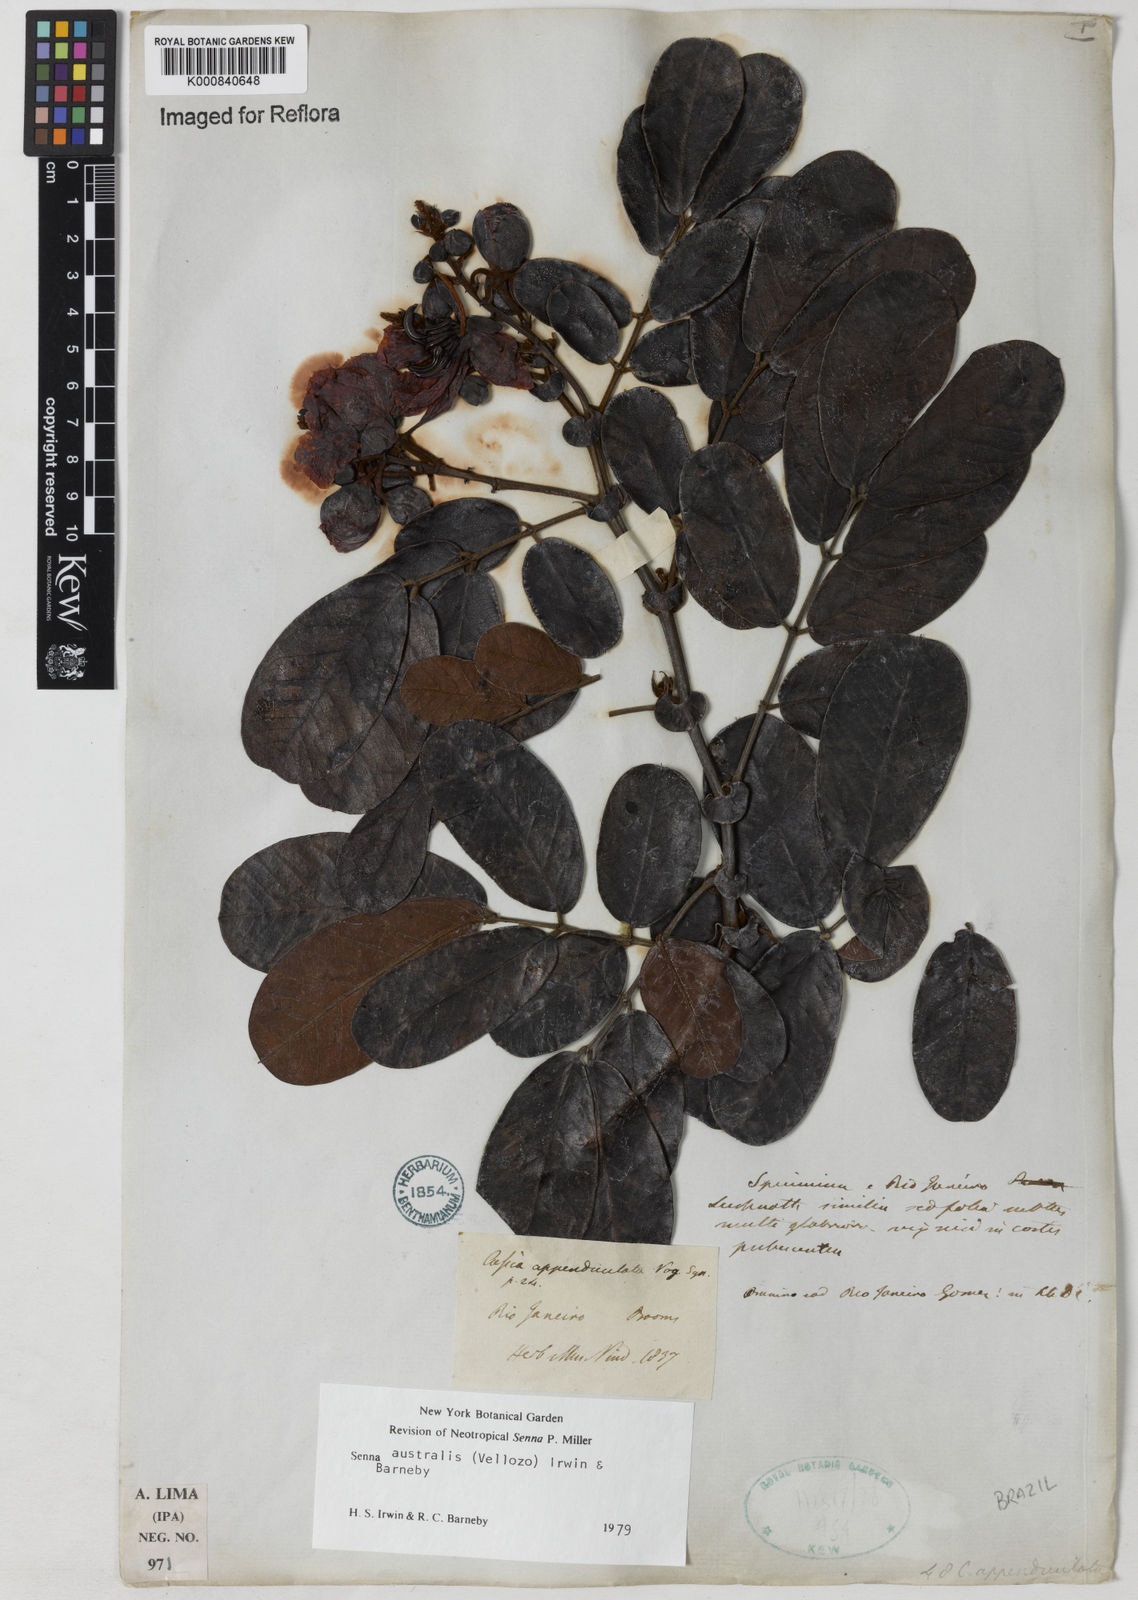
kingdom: Plantae
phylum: Tracheophyta
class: Magnoliopsida
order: Fabales
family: Fabaceae
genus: Senna
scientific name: Senna appendiculata
